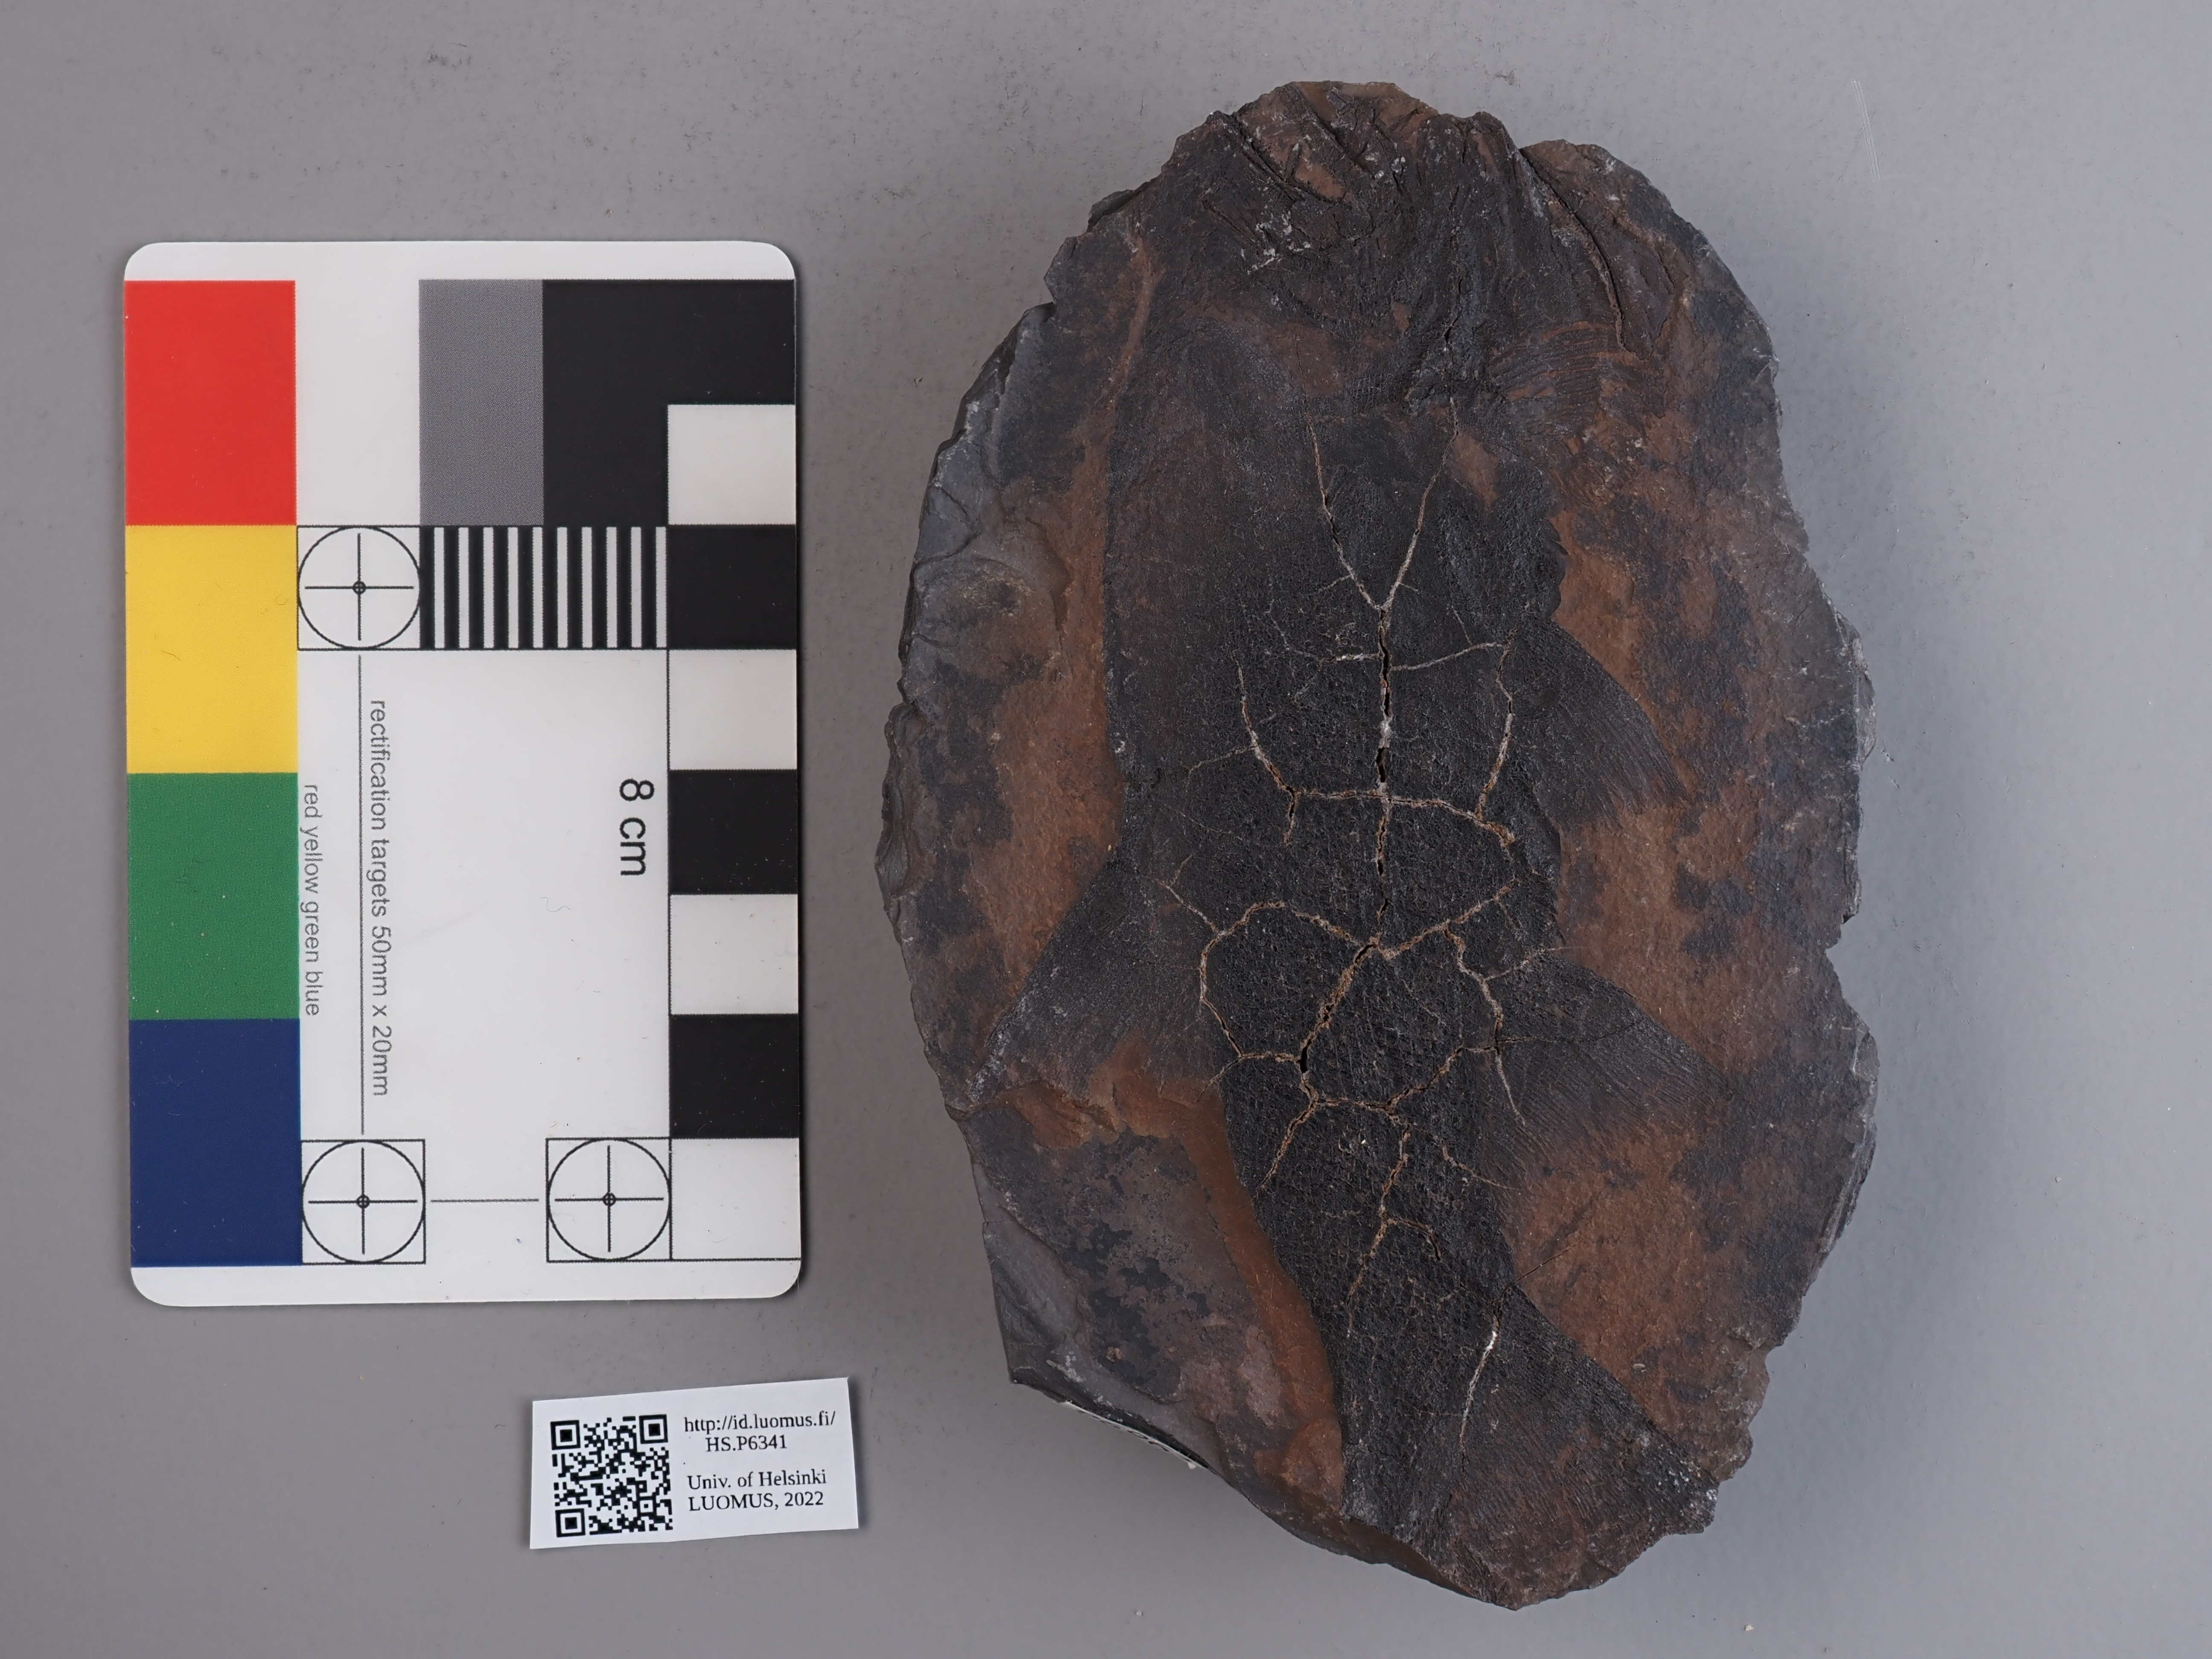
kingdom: Animalia
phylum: Chordata
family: Amblypteridae
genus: Amblypterus
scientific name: Amblypterus macropterus
